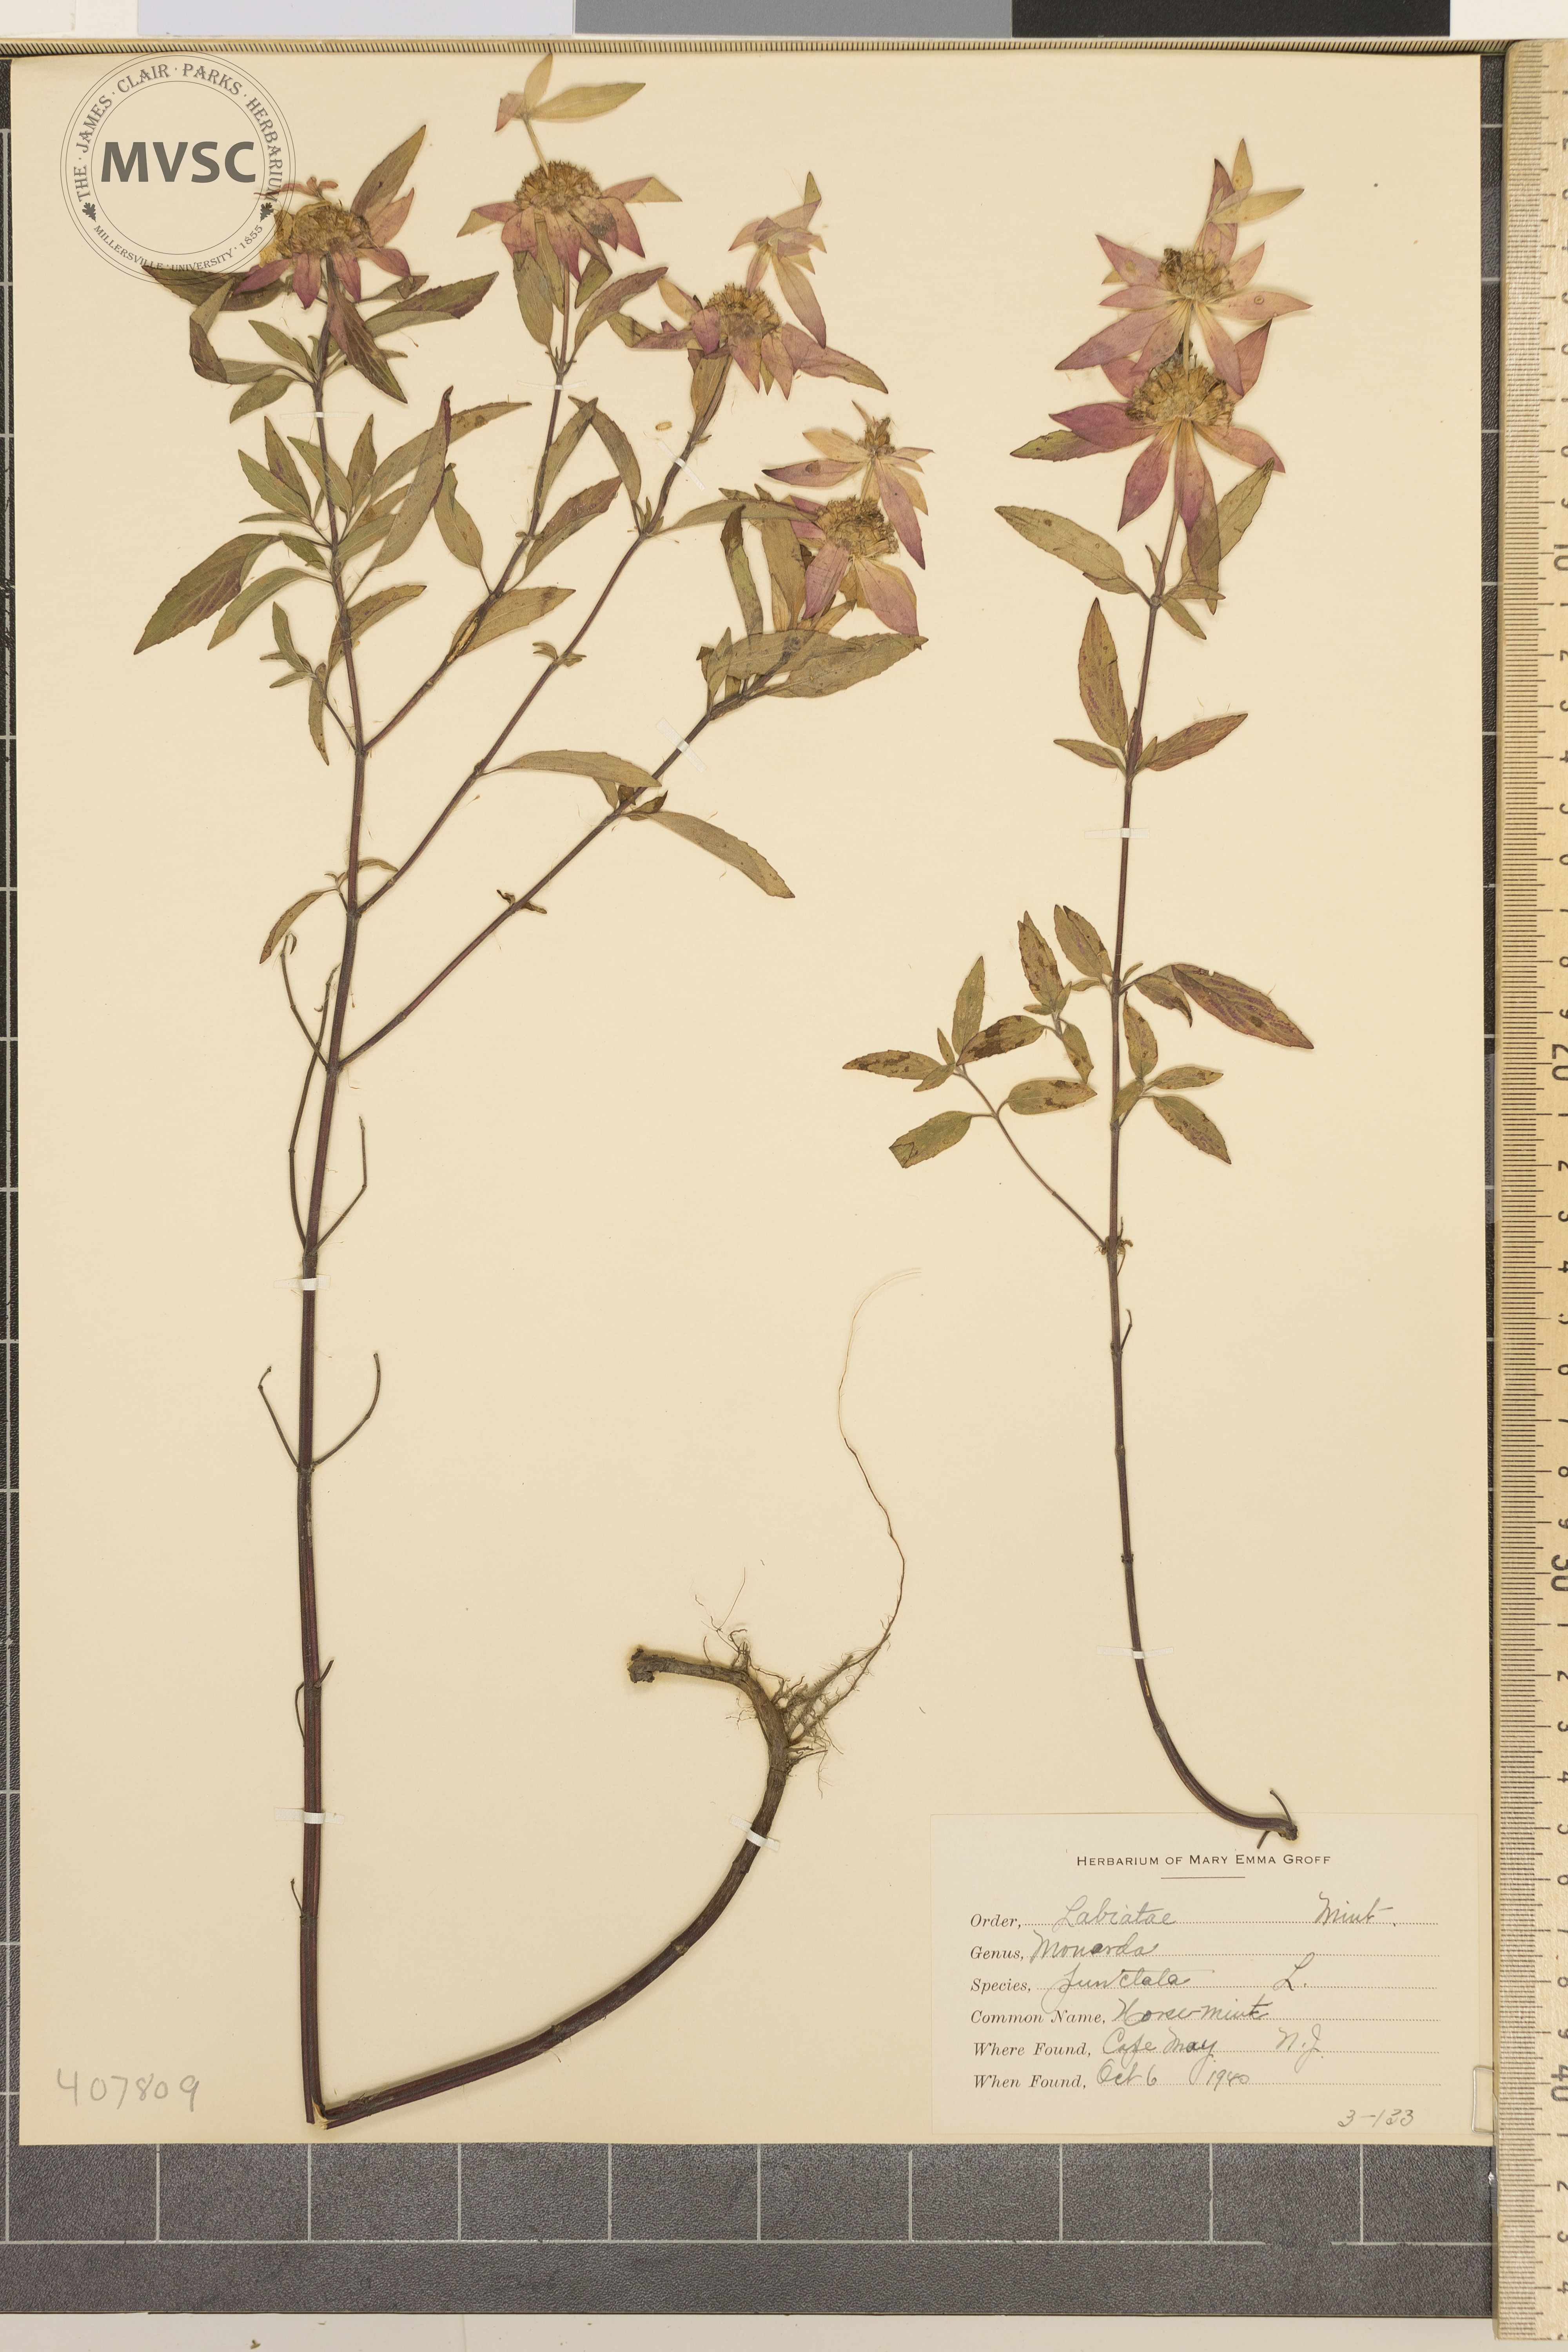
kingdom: Plantae
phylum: Tracheophyta
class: Magnoliopsida
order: Lamiales
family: Lamiaceae
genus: Monarda
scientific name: Monarda punctata
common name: horse mint
